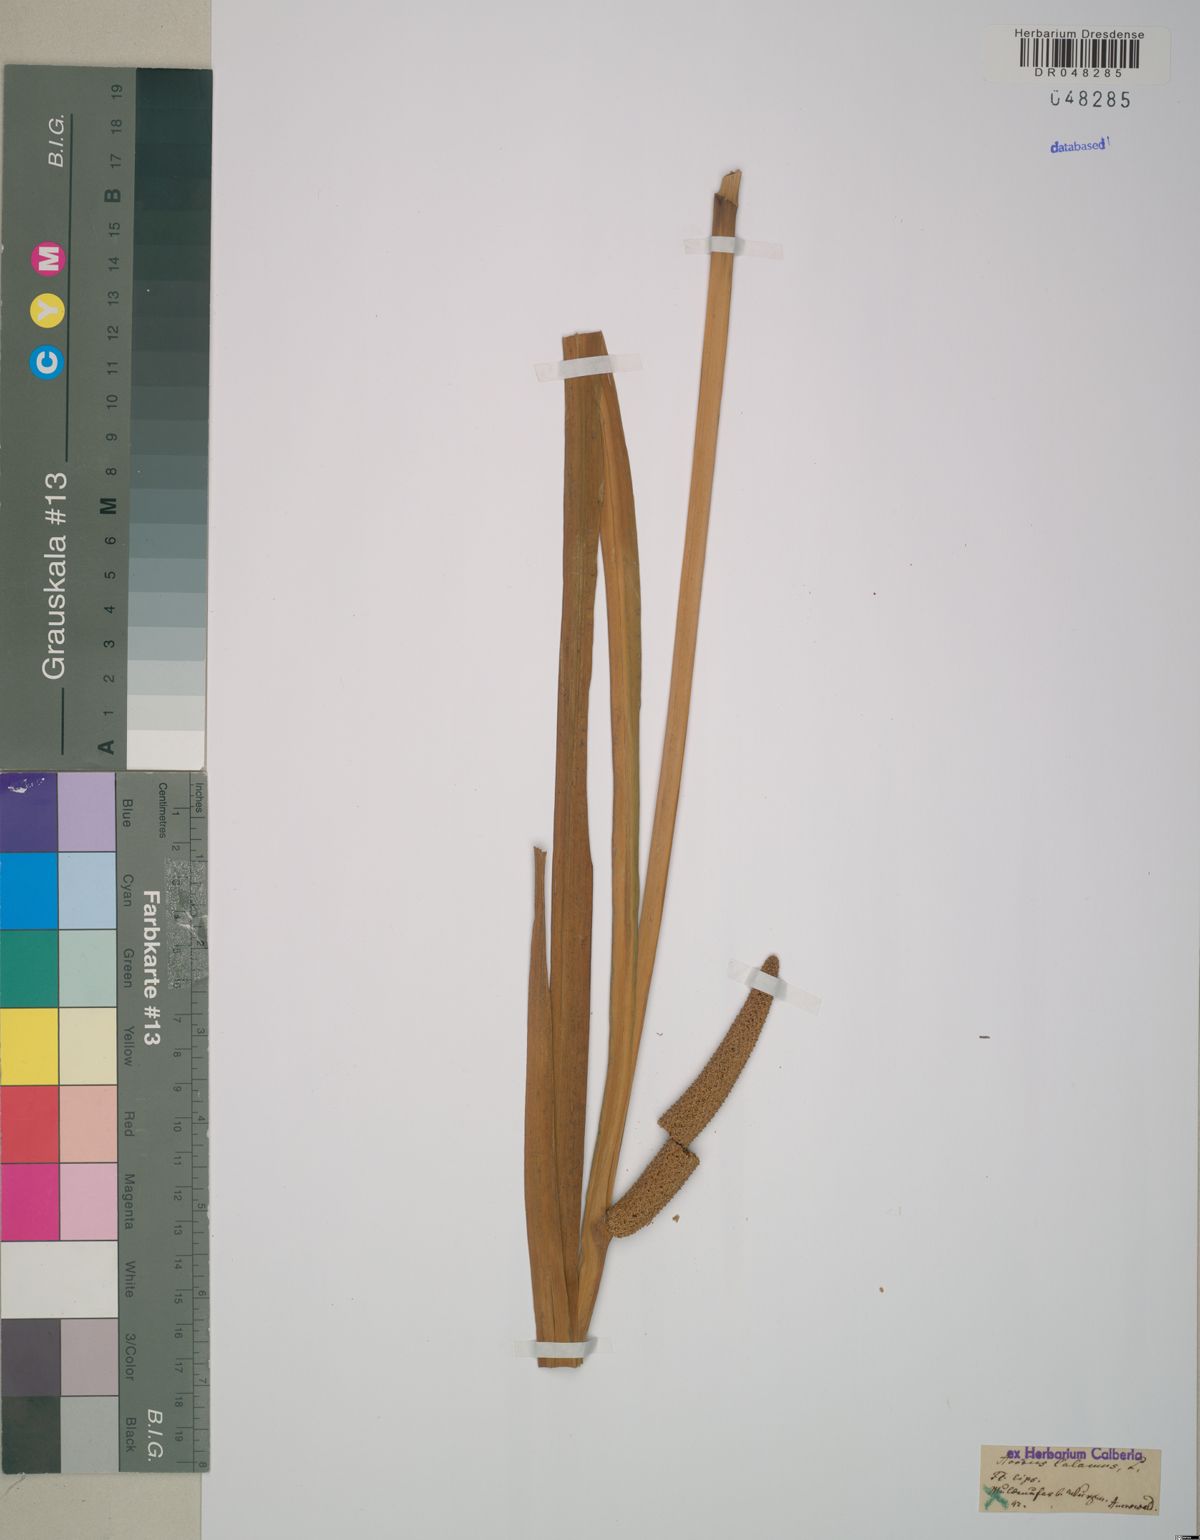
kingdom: Plantae
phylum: Tracheophyta
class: Liliopsida
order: Acorales
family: Acoraceae
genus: Acorus
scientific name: Acorus calamus
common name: Sweet-flag
